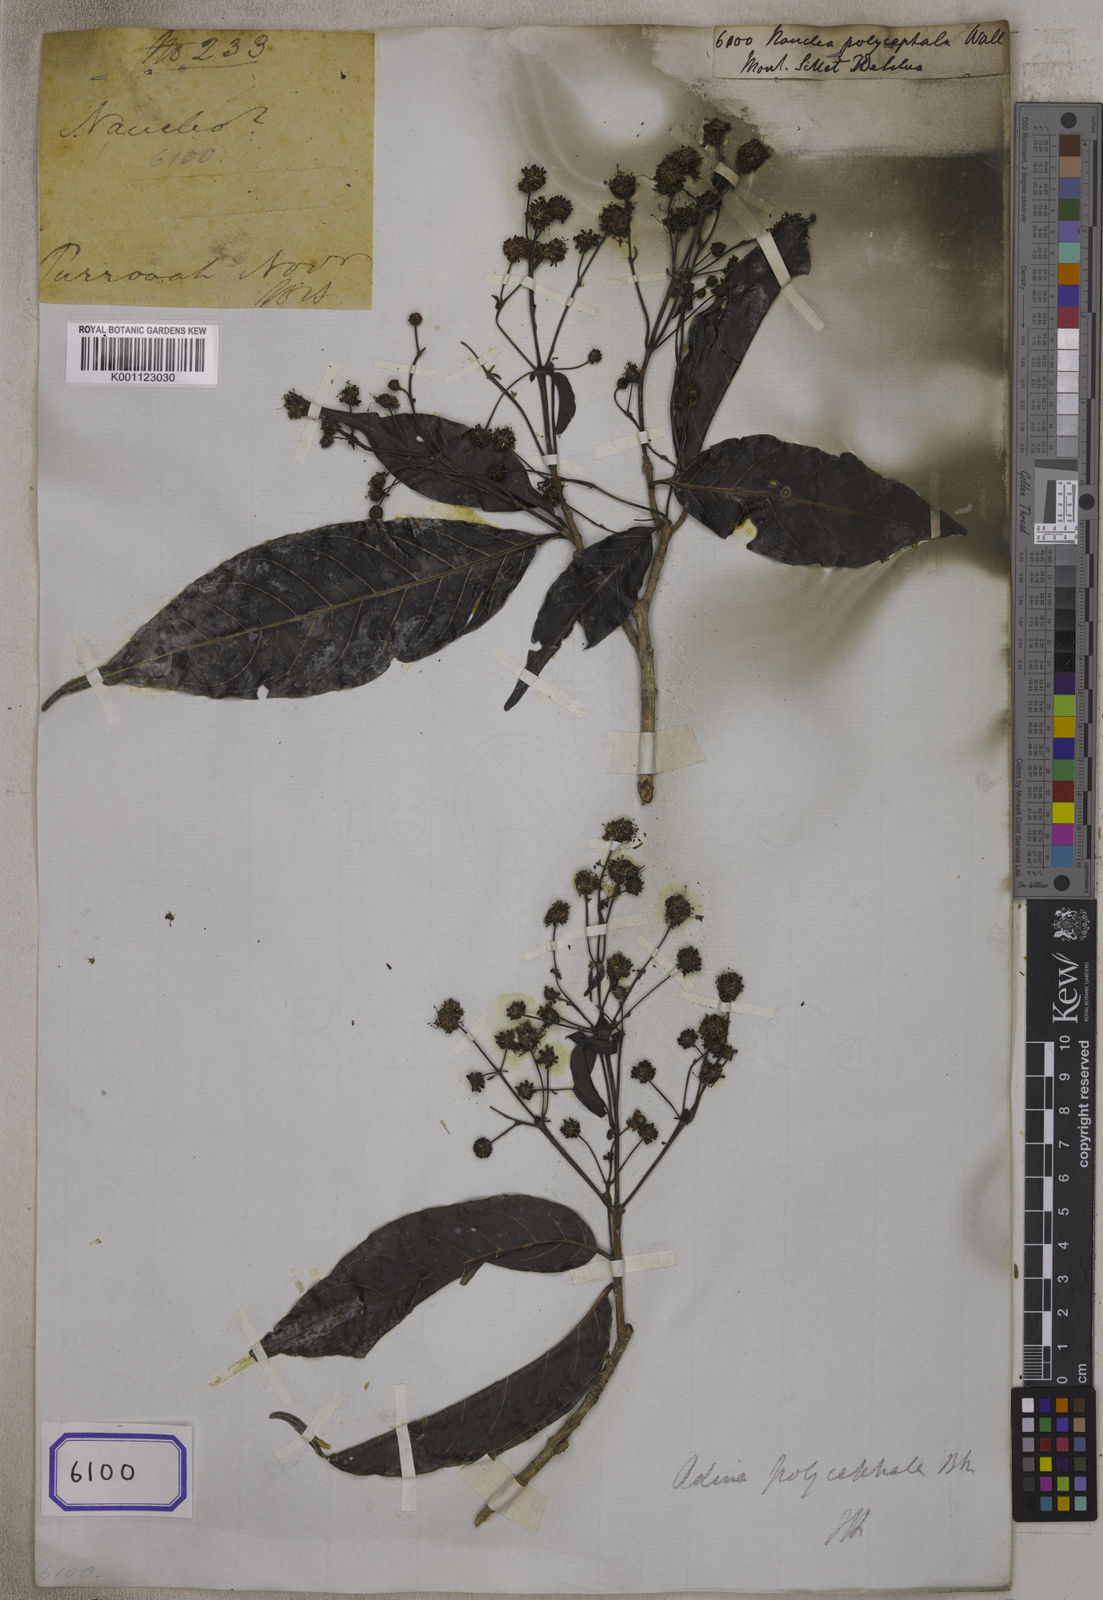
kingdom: Plantae
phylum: Tracheophyta
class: Magnoliopsida
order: Gentianales
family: Rubiaceae
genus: Nauclea
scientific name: Nauclea
